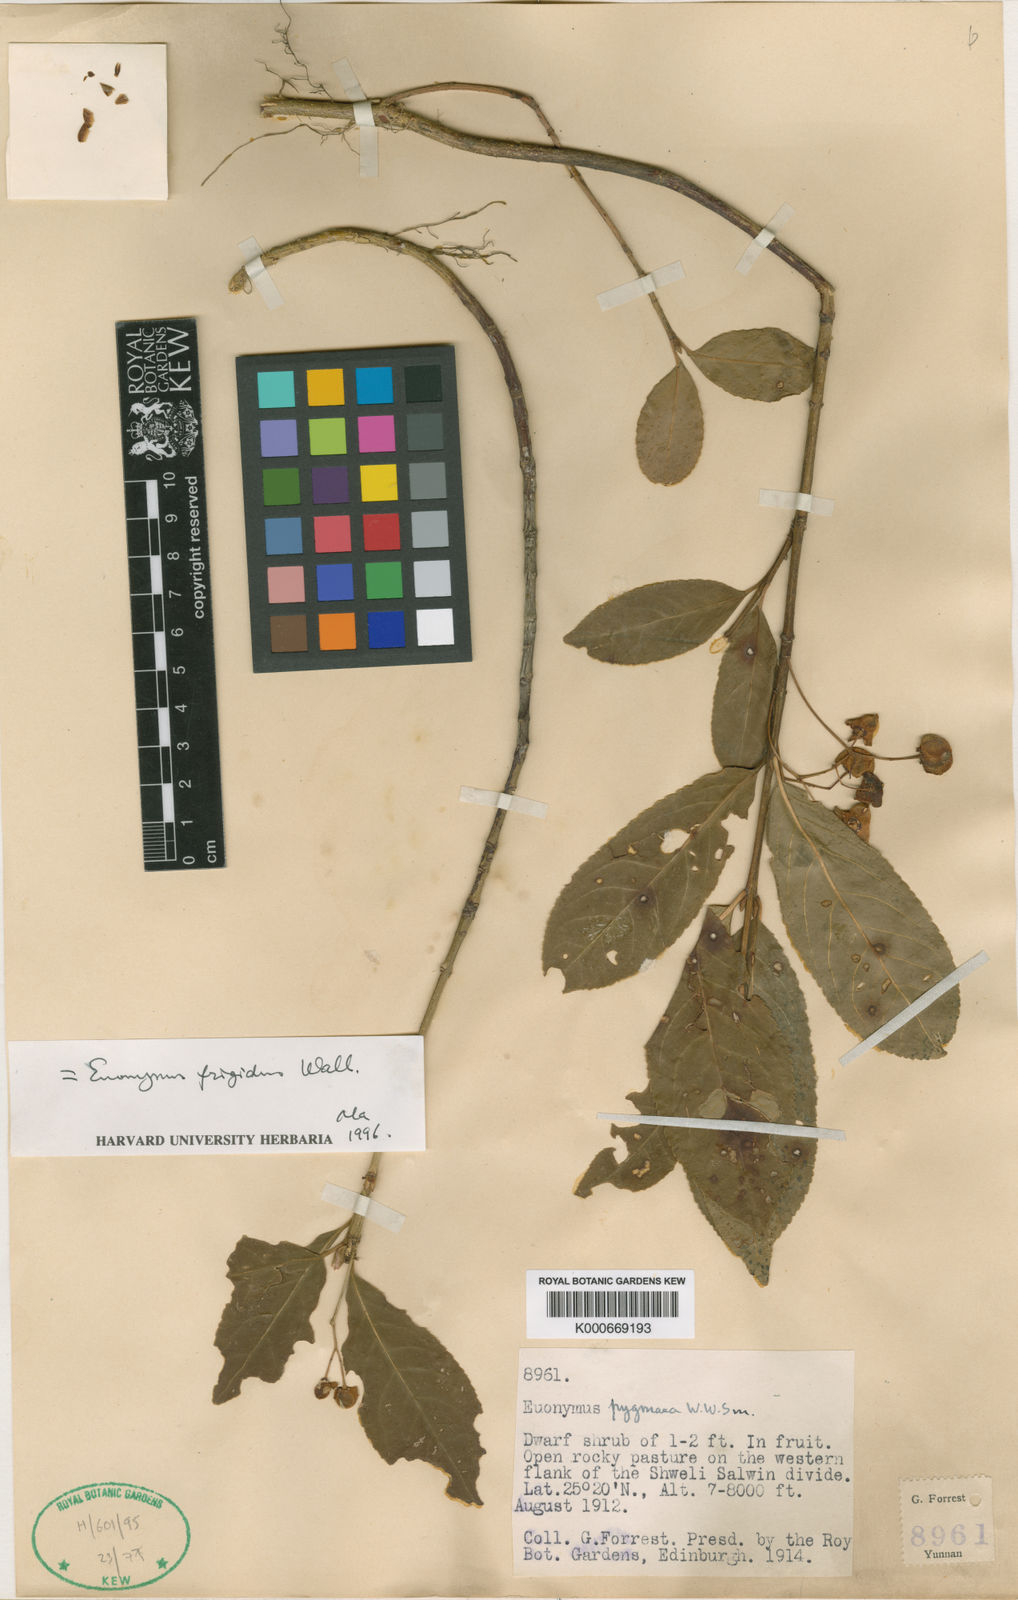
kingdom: Plantae
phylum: Tracheophyta
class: Magnoliopsida
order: Celastrales
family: Celastraceae
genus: Euonymus
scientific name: Euonymus frigidus
